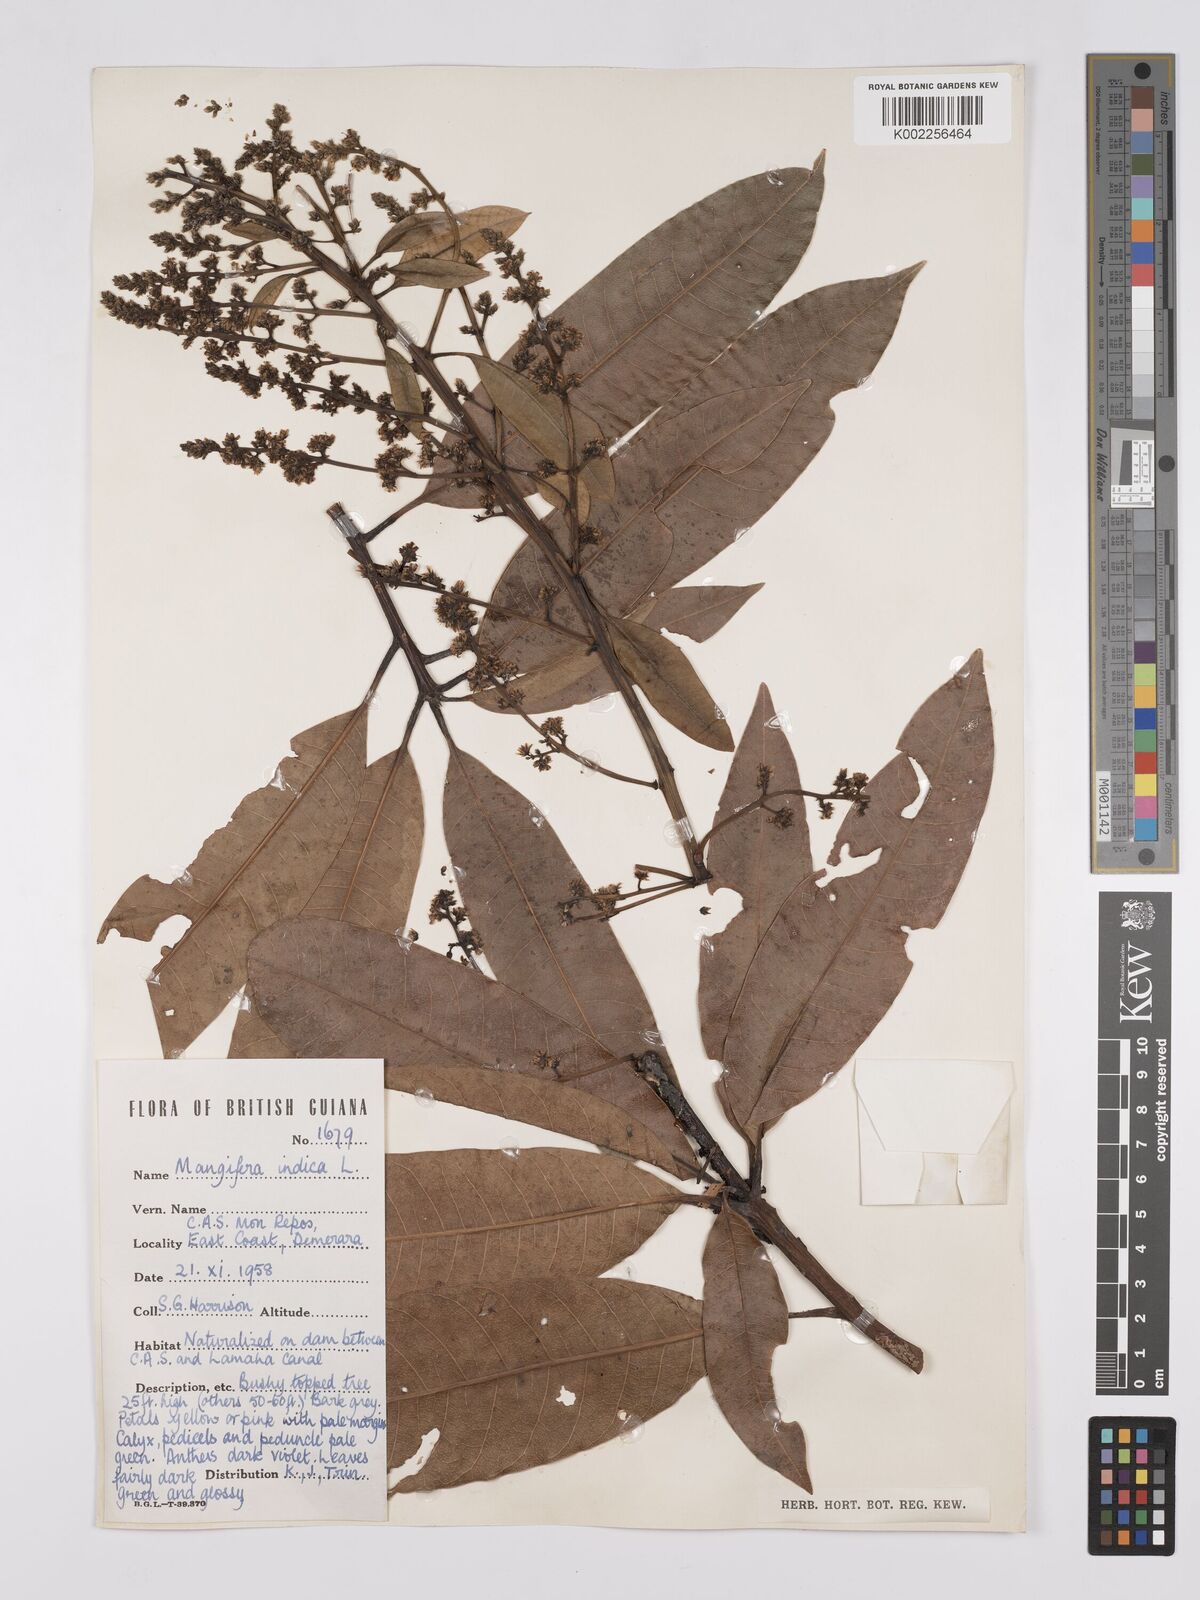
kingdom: Plantae
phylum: Tracheophyta
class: Magnoliopsida
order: Sapindales
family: Anacardiaceae
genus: Mangifera
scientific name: Mangifera indica
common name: Mango
